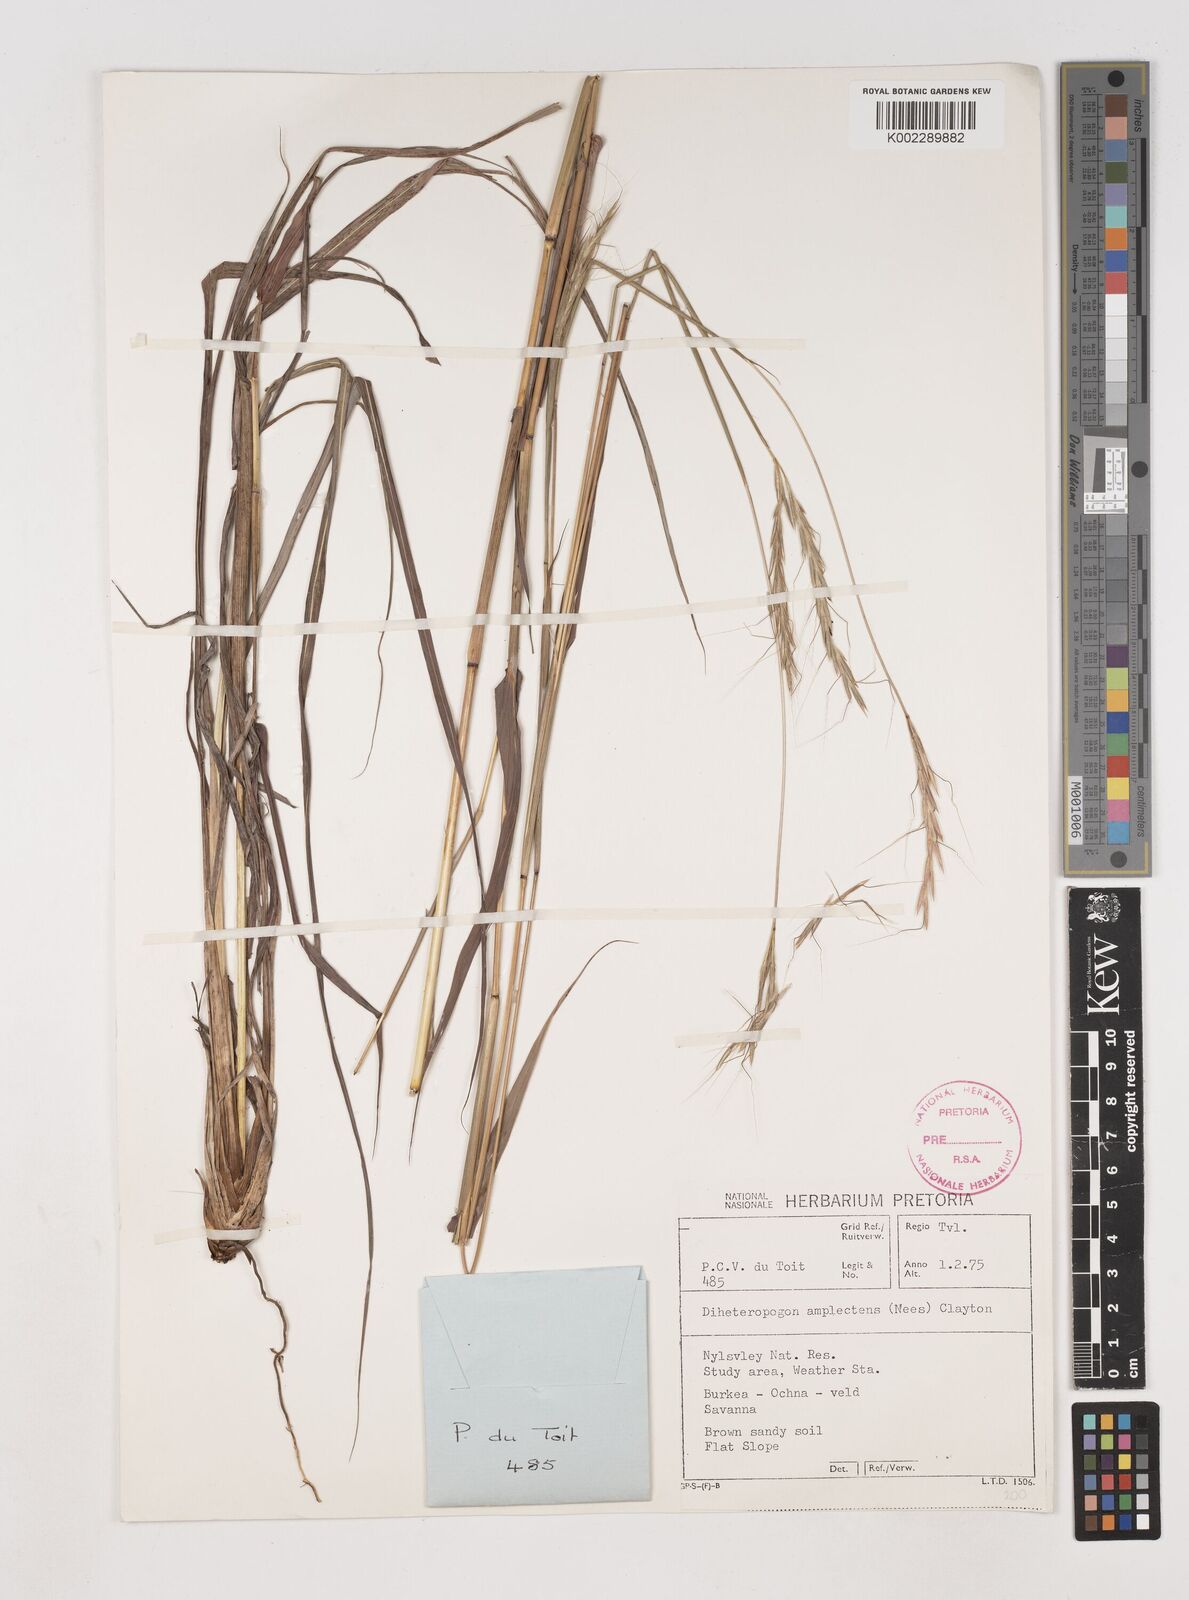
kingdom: Plantae
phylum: Tracheophyta
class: Liliopsida
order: Poales
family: Poaceae
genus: Diheteropogon
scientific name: Diheteropogon amplectens
